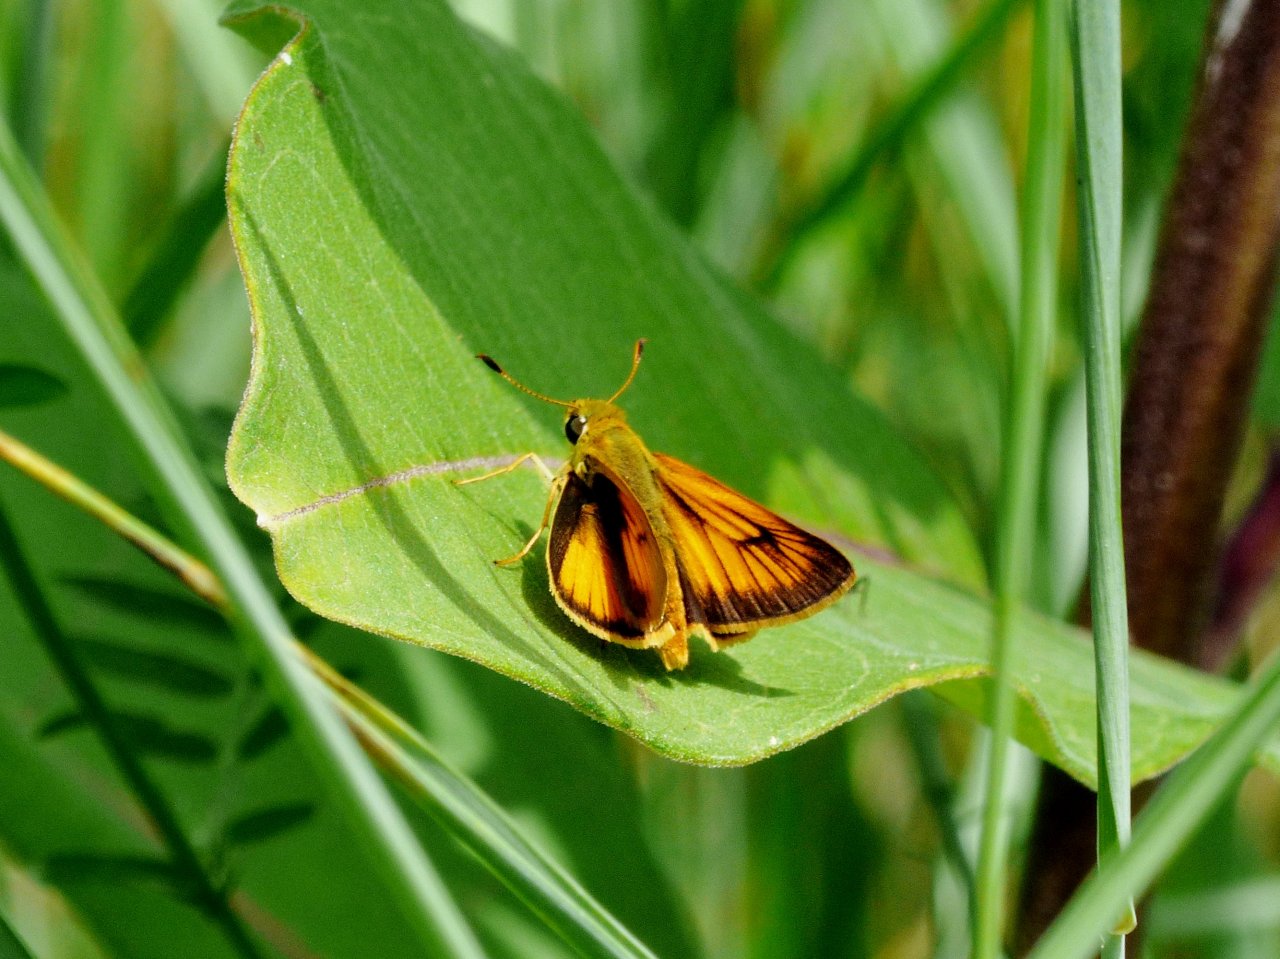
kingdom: Animalia
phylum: Arthropoda
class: Insecta
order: Lepidoptera
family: Hesperiidae
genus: Atrytone
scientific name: Atrytone delaware
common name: Delaware Skipper
